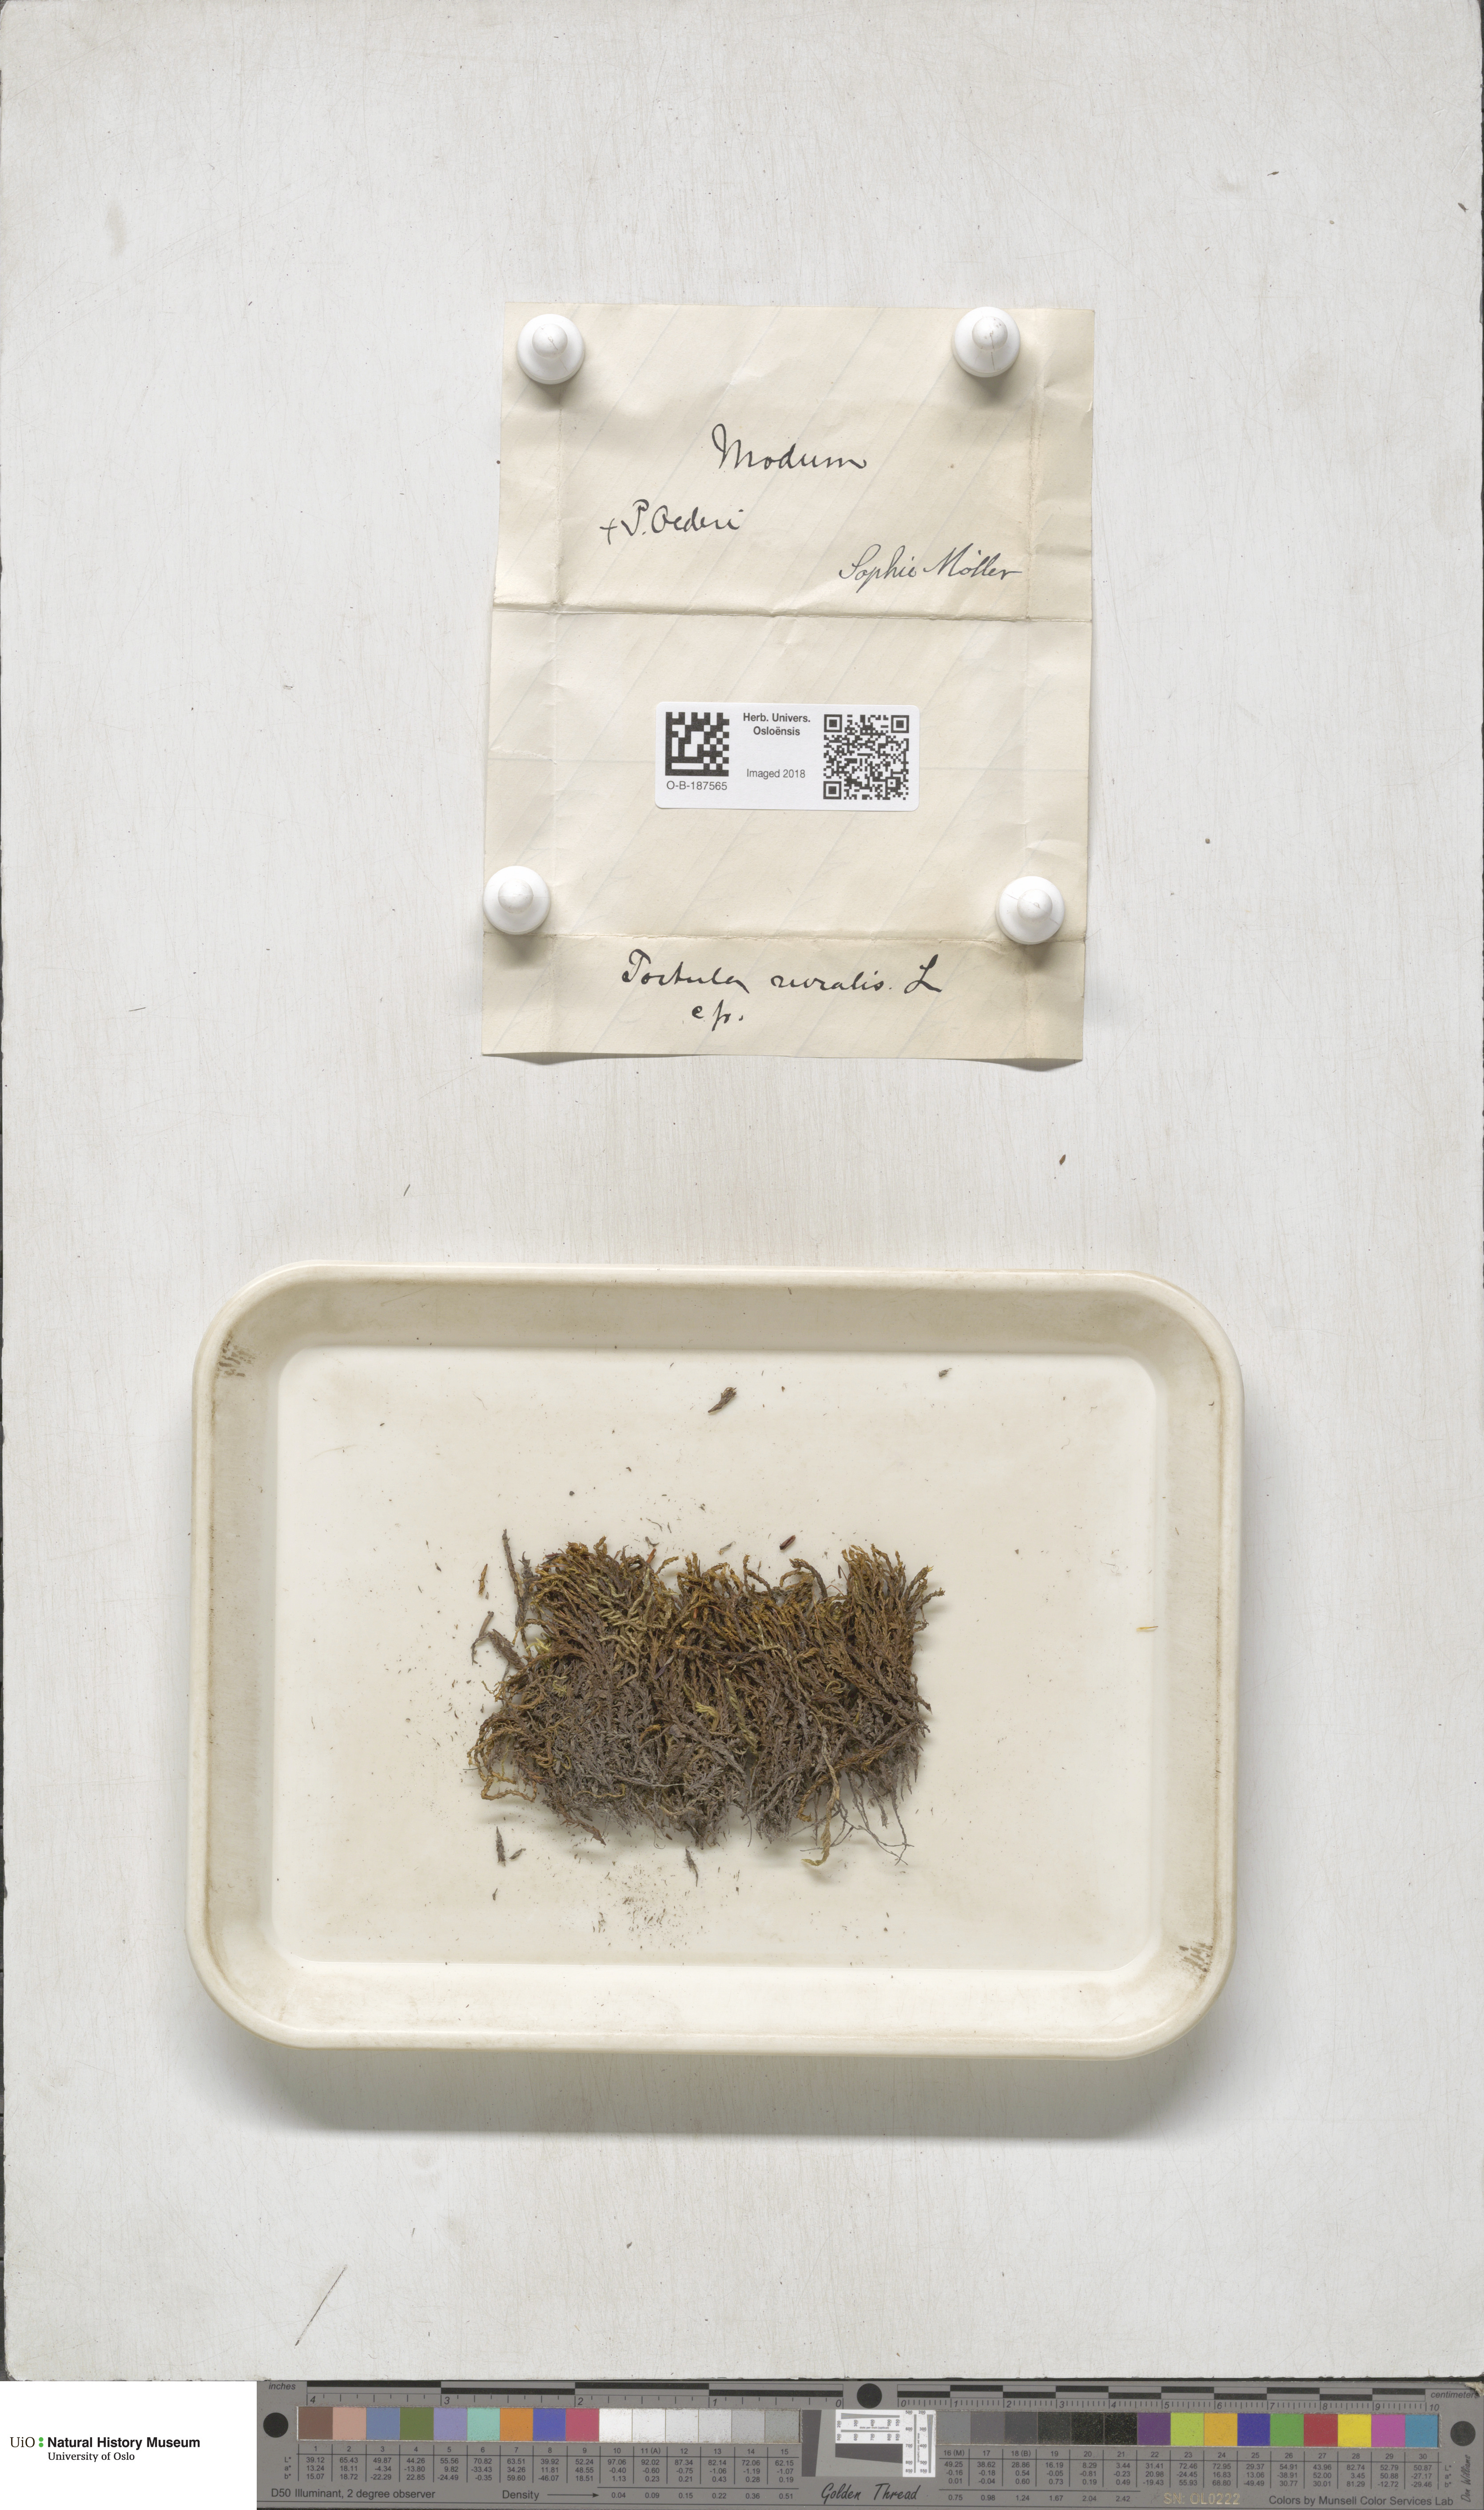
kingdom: Plantae
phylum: Bryophyta
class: Bryopsida
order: Pottiales
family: Pottiaceae
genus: Syntrichia
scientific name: Syntrichia ruralis
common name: Sidewalk screw moss
